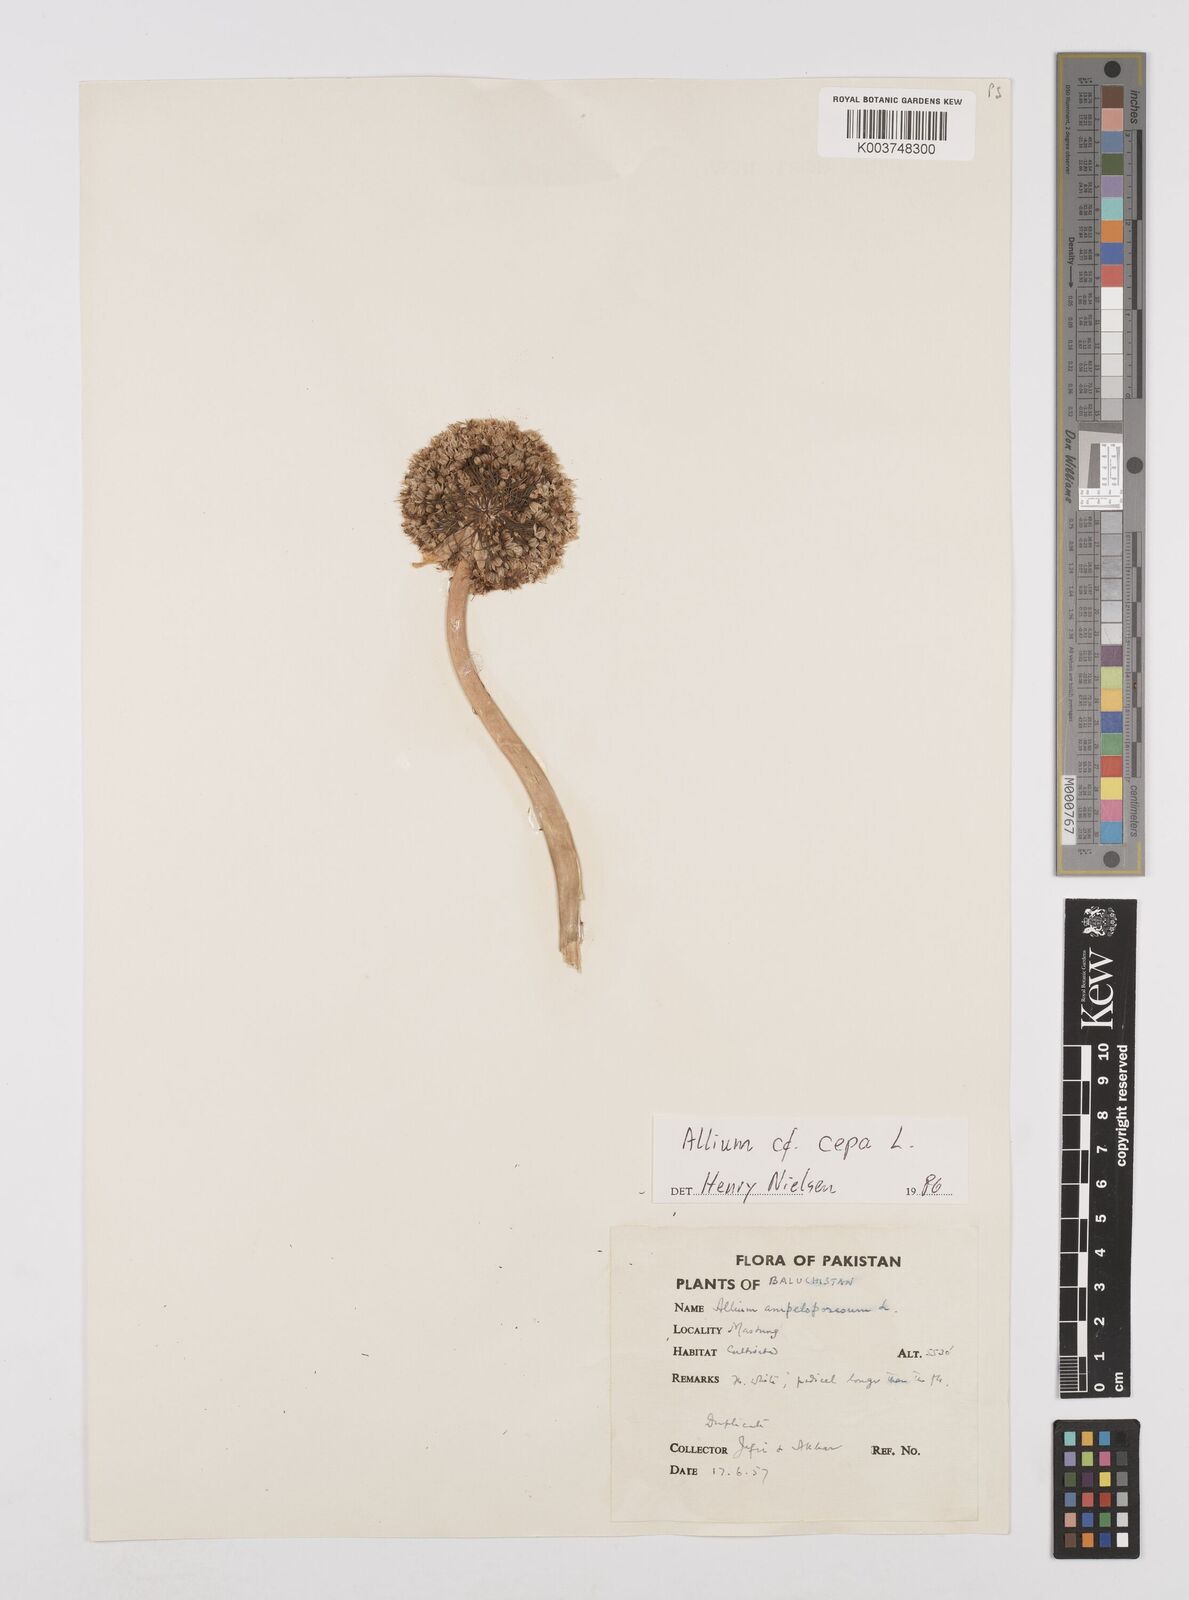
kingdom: Plantae
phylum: Tracheophyta
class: Liliopsida
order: Asparagales
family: Amaryllidaceae
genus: Allium
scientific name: Allium cepa
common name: Onion
